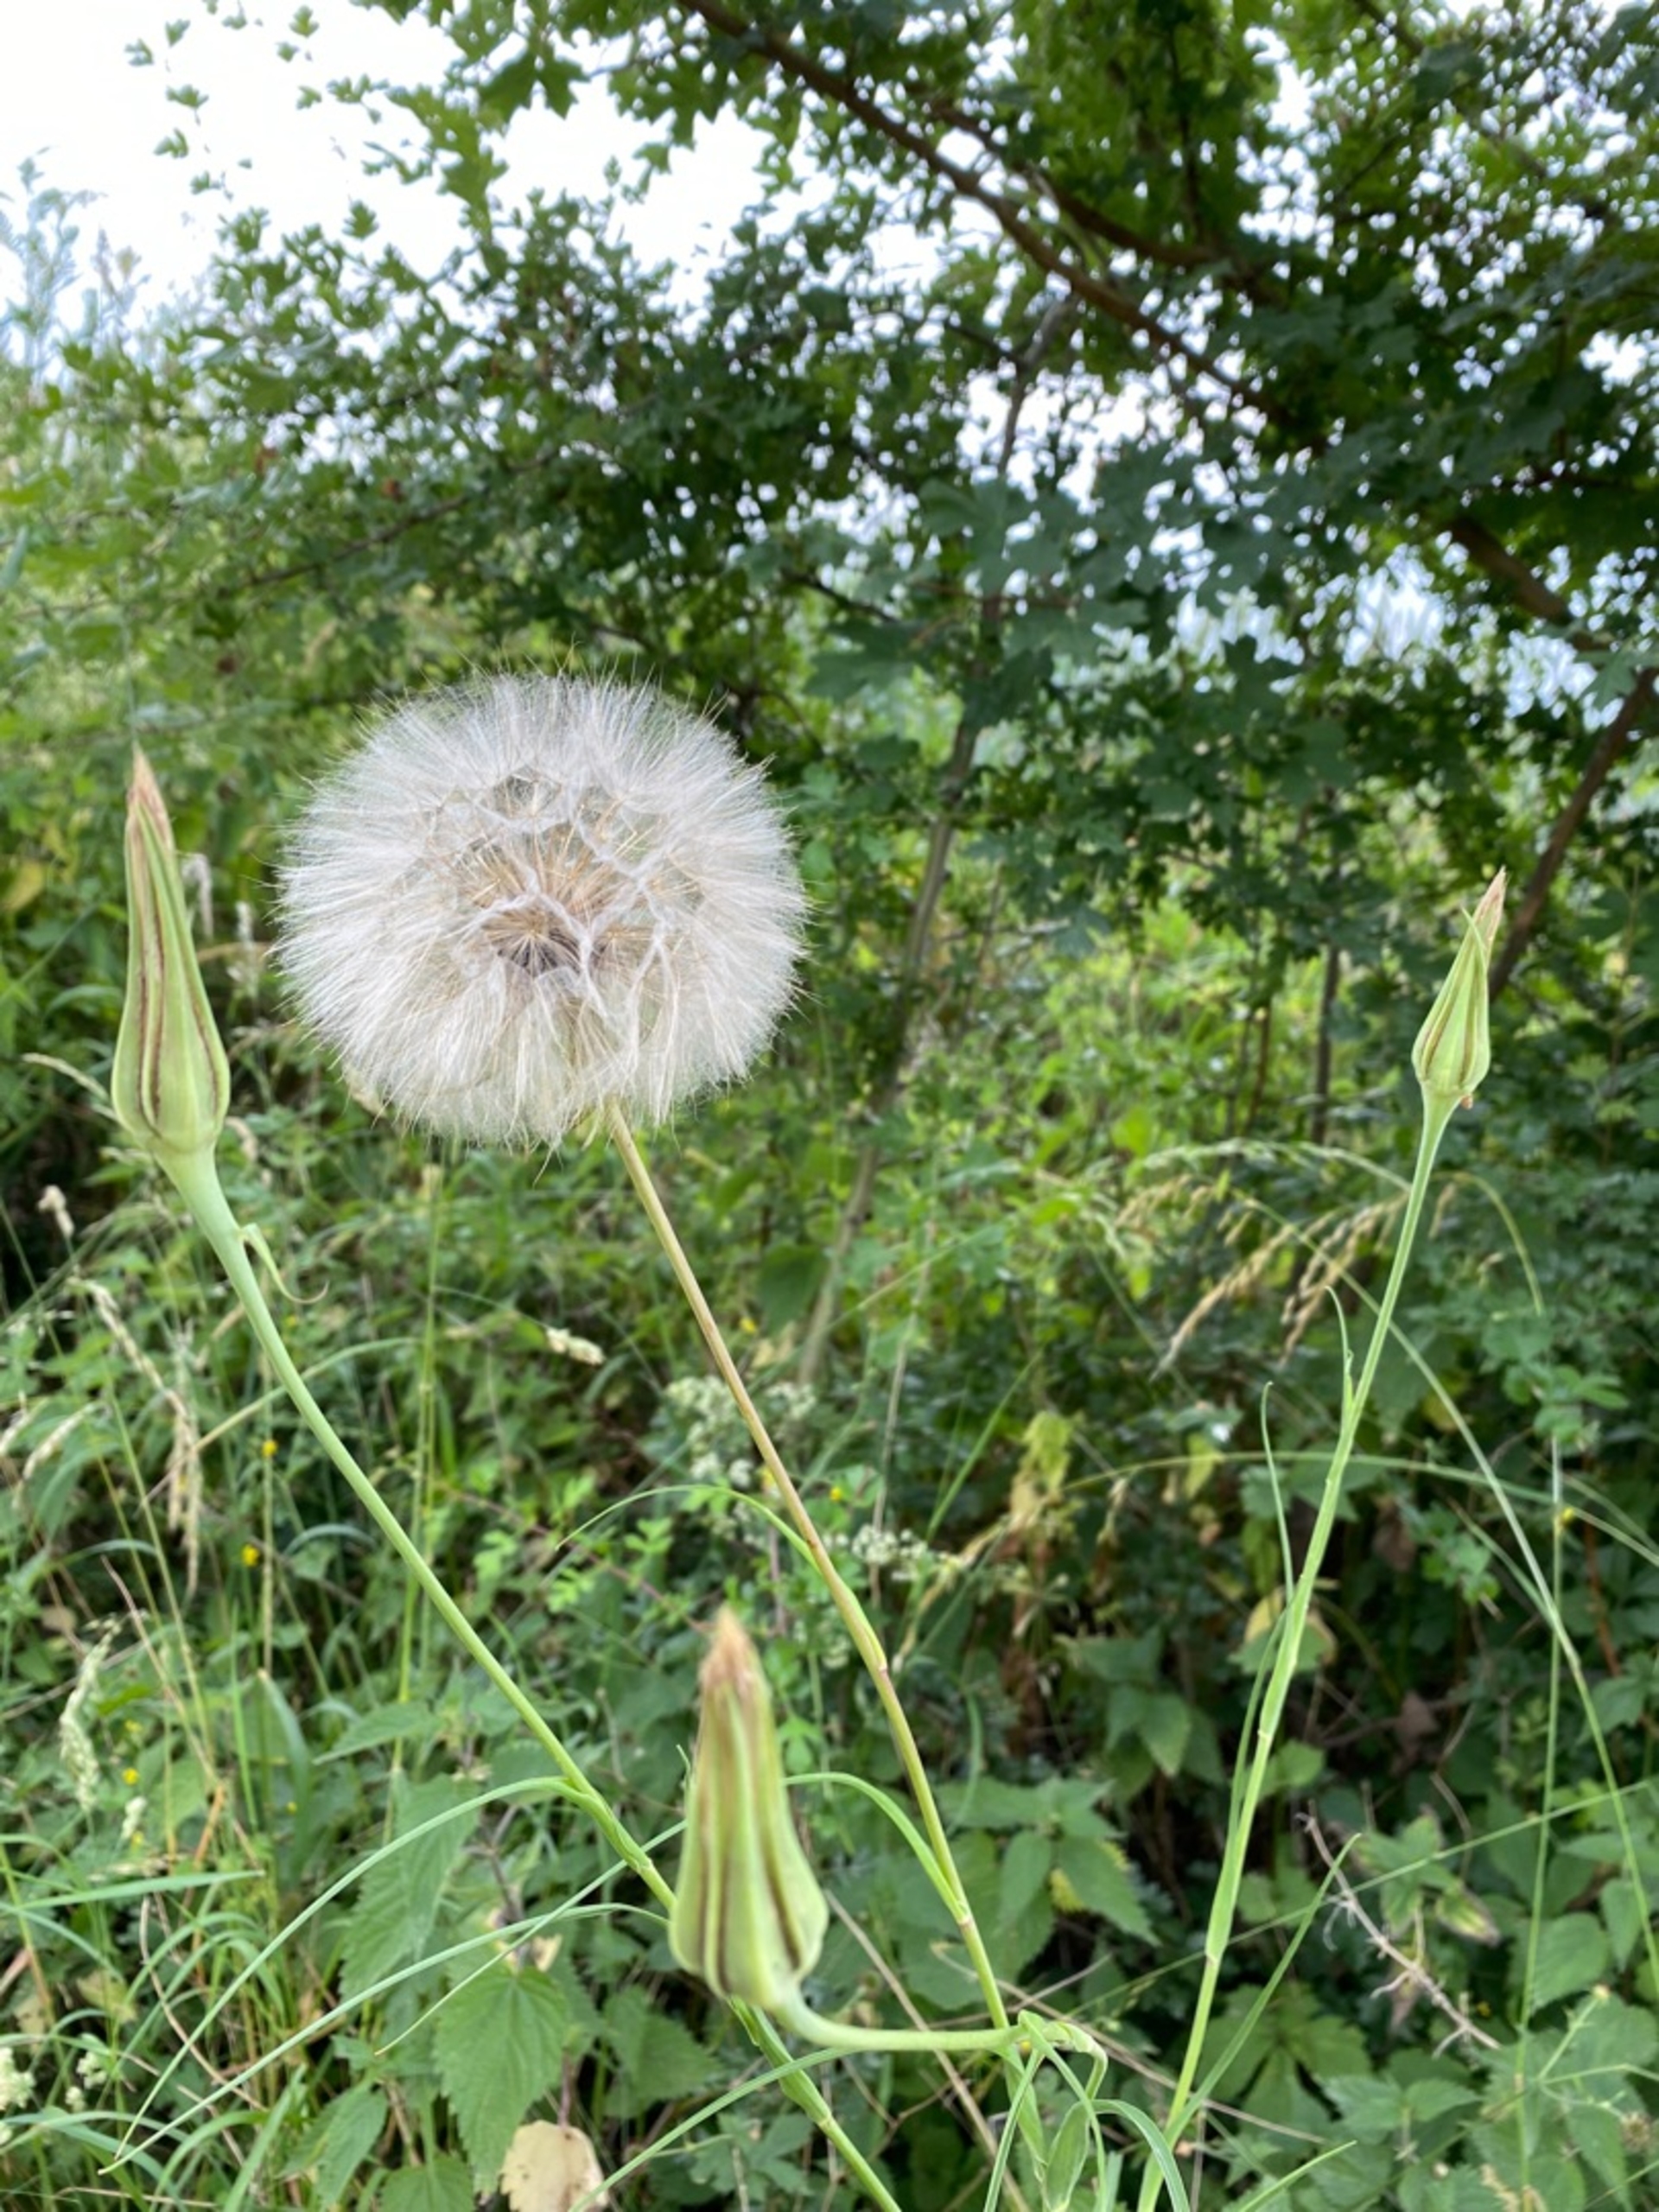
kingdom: Plantae
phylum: Tracheophyta
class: Magnoliopsida
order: Asterales
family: Asteraceae
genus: Tragopogon
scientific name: Tragopogon pratensis
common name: Gedeskæg
